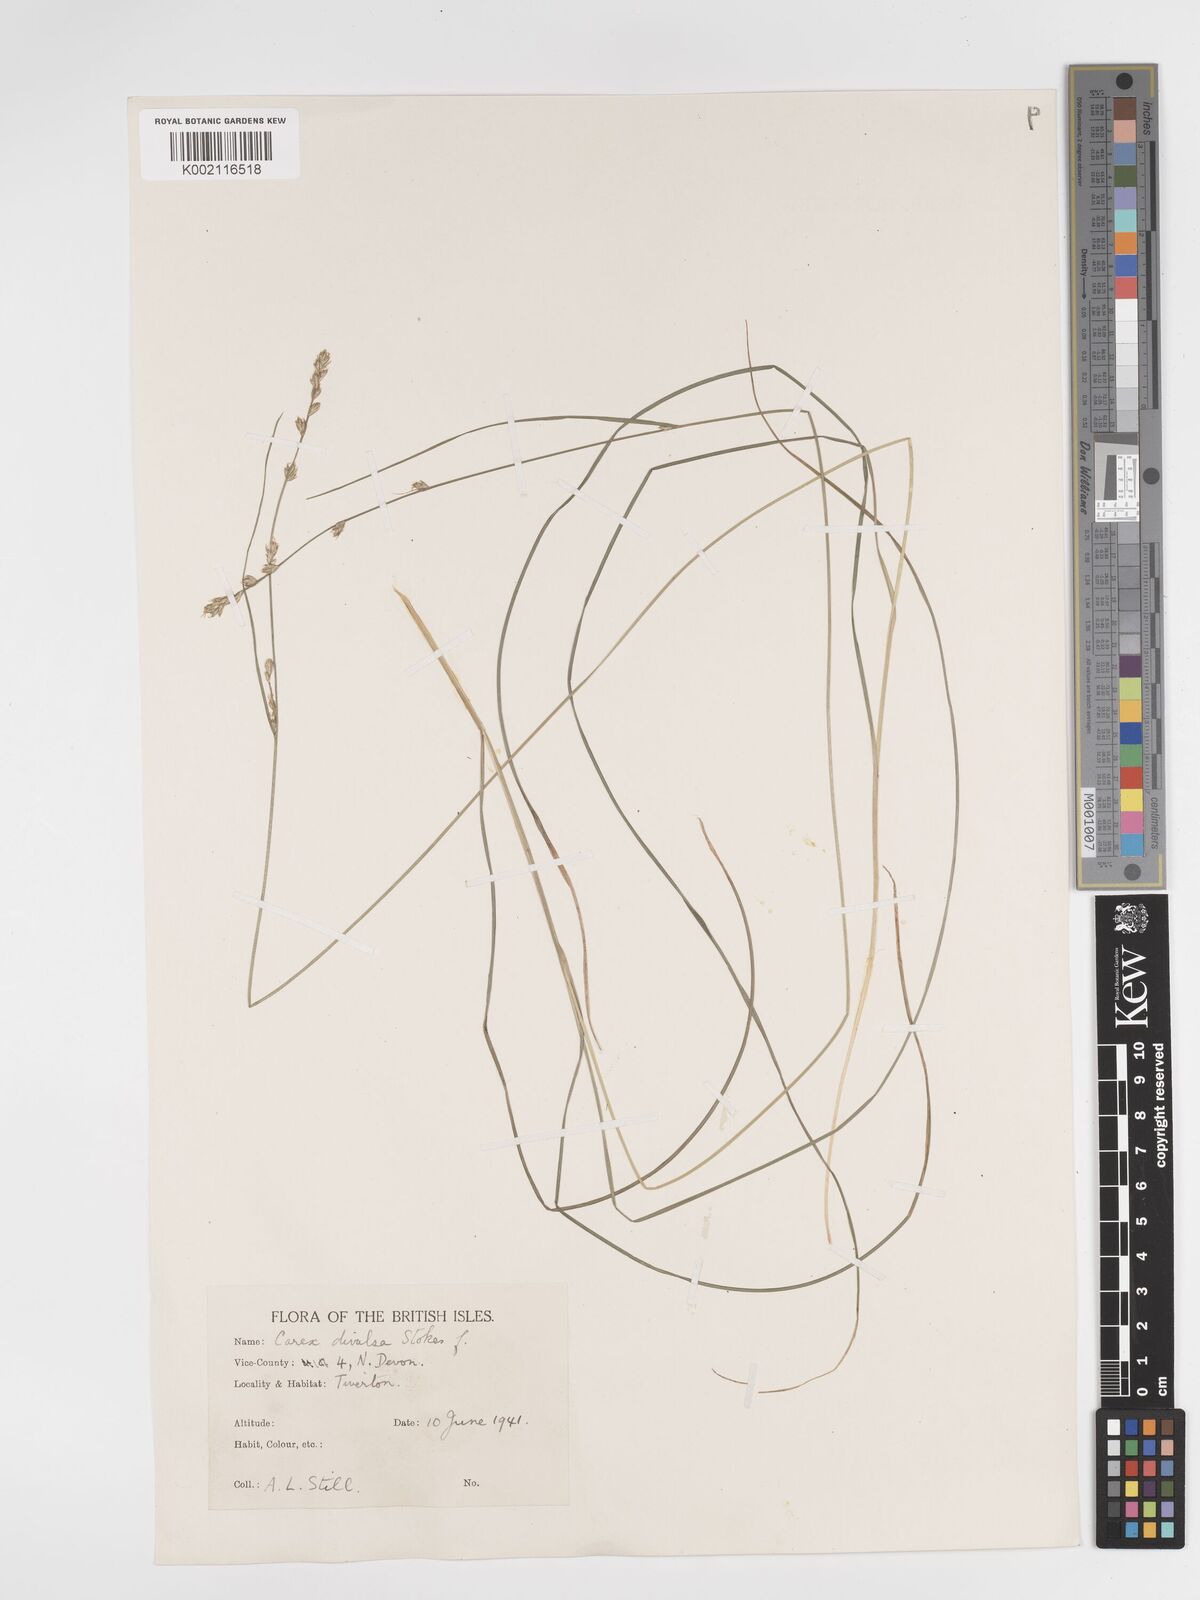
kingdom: Plantae
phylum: Tracheophyta
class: Liliopsida
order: Poales
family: Cyperaceae
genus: Carex
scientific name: Carex divulsa
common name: Grassland sedge
